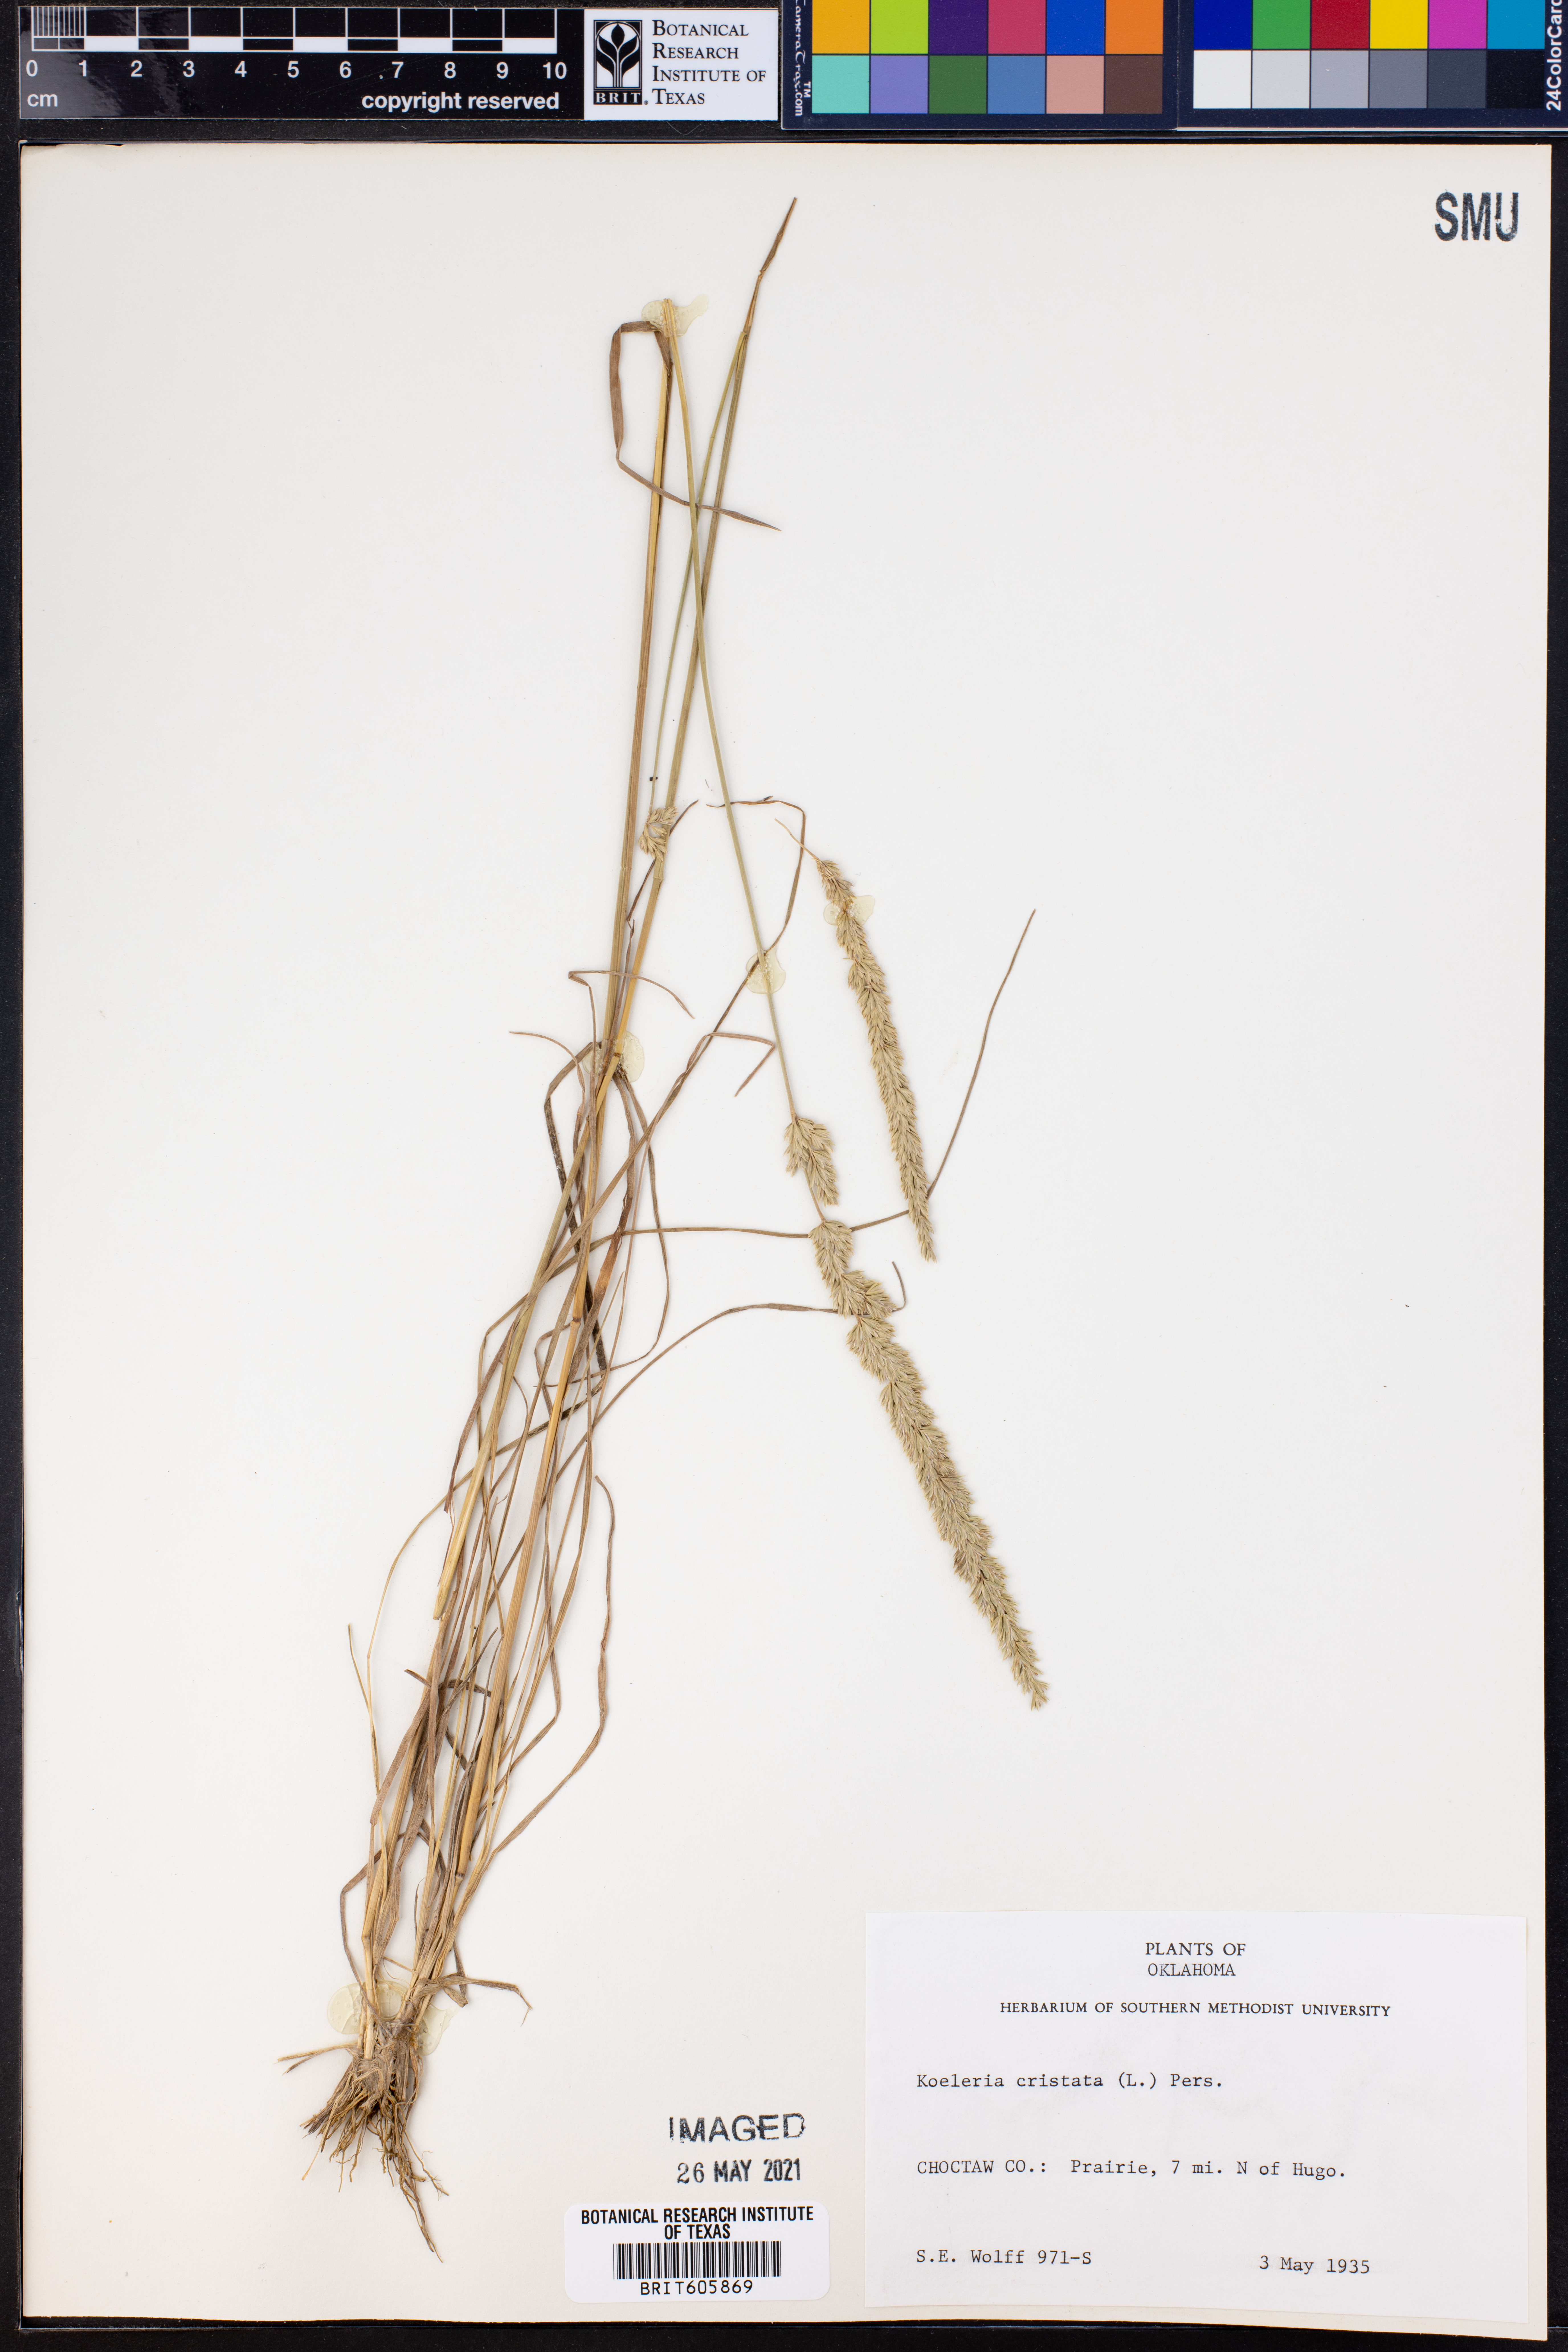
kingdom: Plantae
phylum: Tracheophyta
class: Liliopsida
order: Poales
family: Poaceae
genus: Koeleria
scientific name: Koeleria cristata
